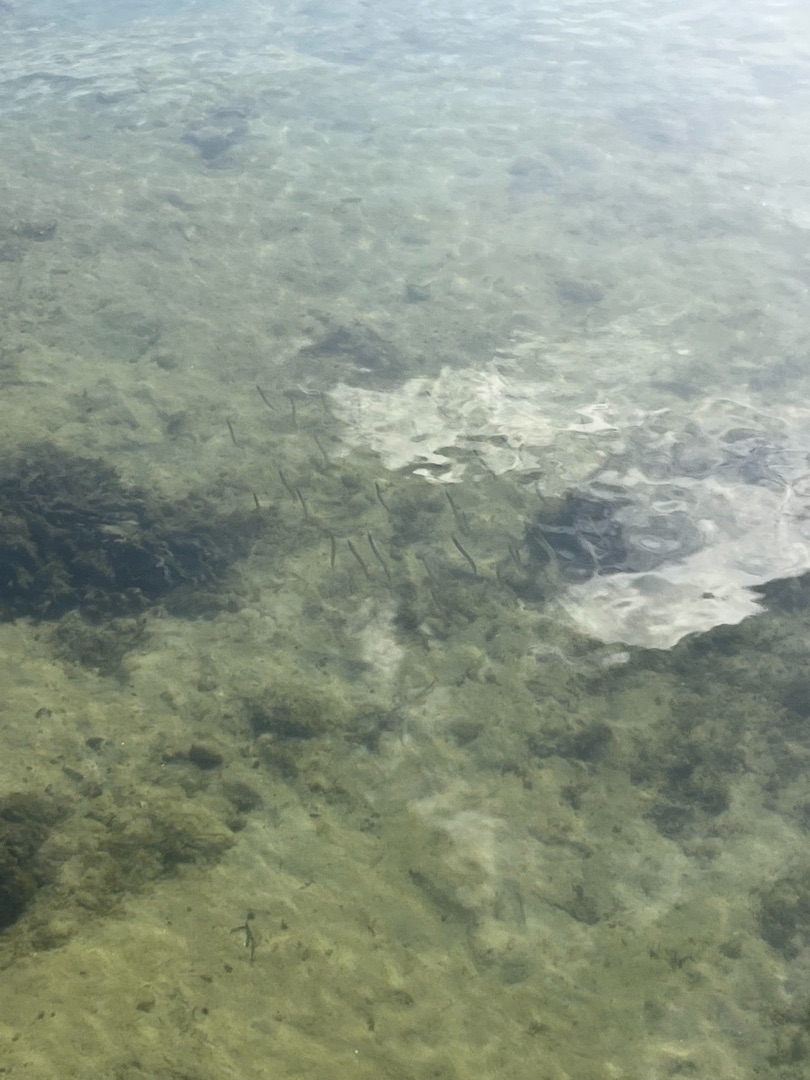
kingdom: Animalia
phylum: Chordata
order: Perciformes
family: Ammodytidae
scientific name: Ammodytidae
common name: Tobisfamilien
